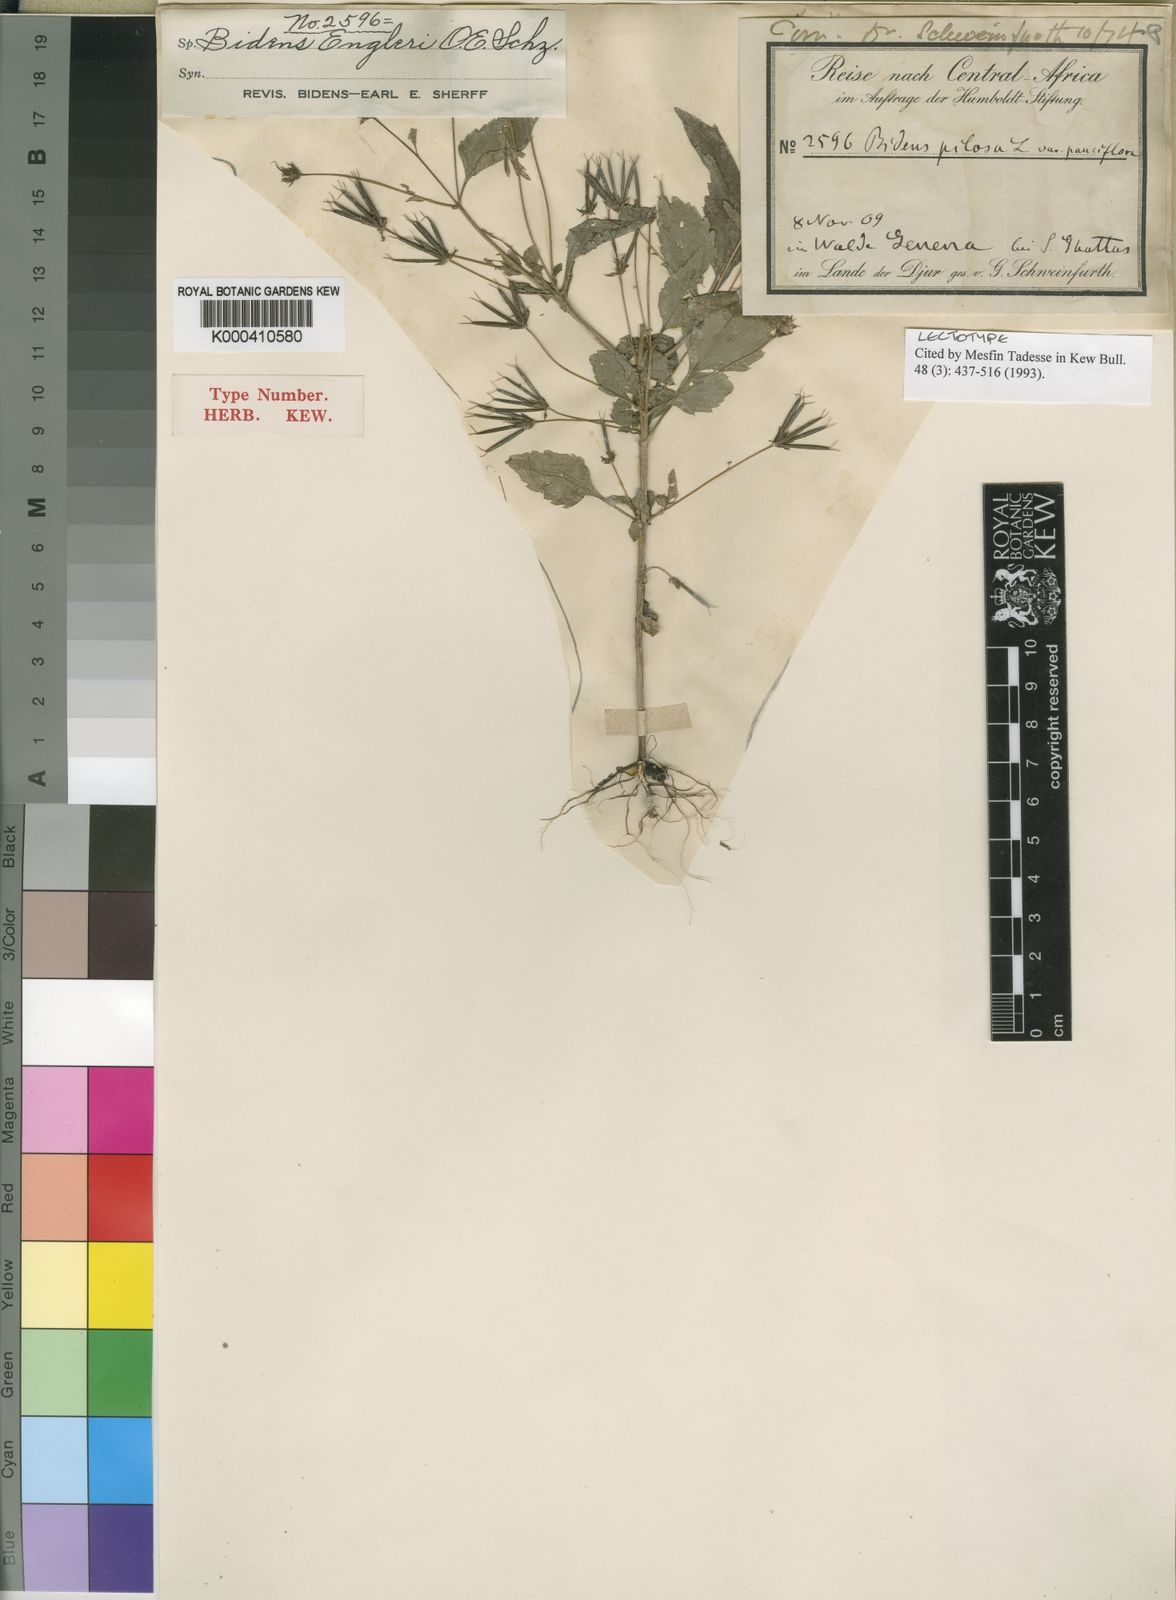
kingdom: Plantae
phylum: Tracheophyta
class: Magnoliopsida
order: Asterales
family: Asteraceae
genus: Bidens
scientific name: Bidens engleri
